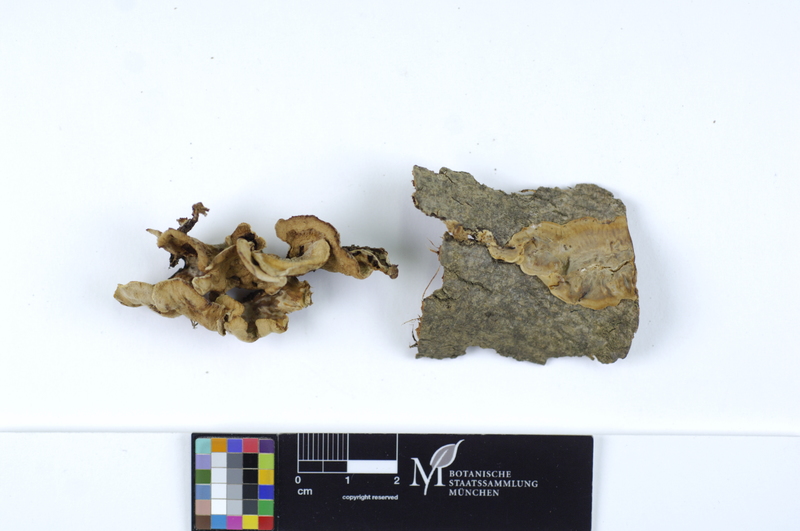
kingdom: Plantae
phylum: Tracheophyta
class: Magnoliopsida
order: Malpighiales
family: Salicaceae
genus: Salix
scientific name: Salix alba
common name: White willow
